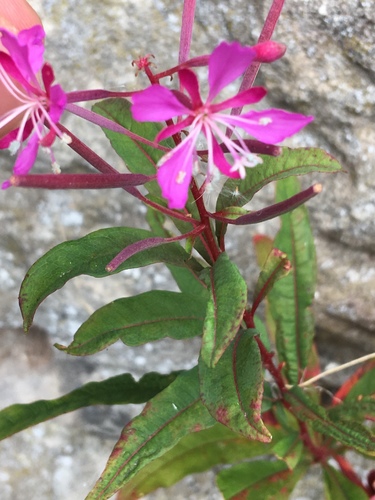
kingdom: Plantae
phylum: Tracheophyta
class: Magnoliopsida
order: Myrtales
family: Onagraceae
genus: Chamaenerion
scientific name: Chamaenerion angustifolium
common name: Fireweed
